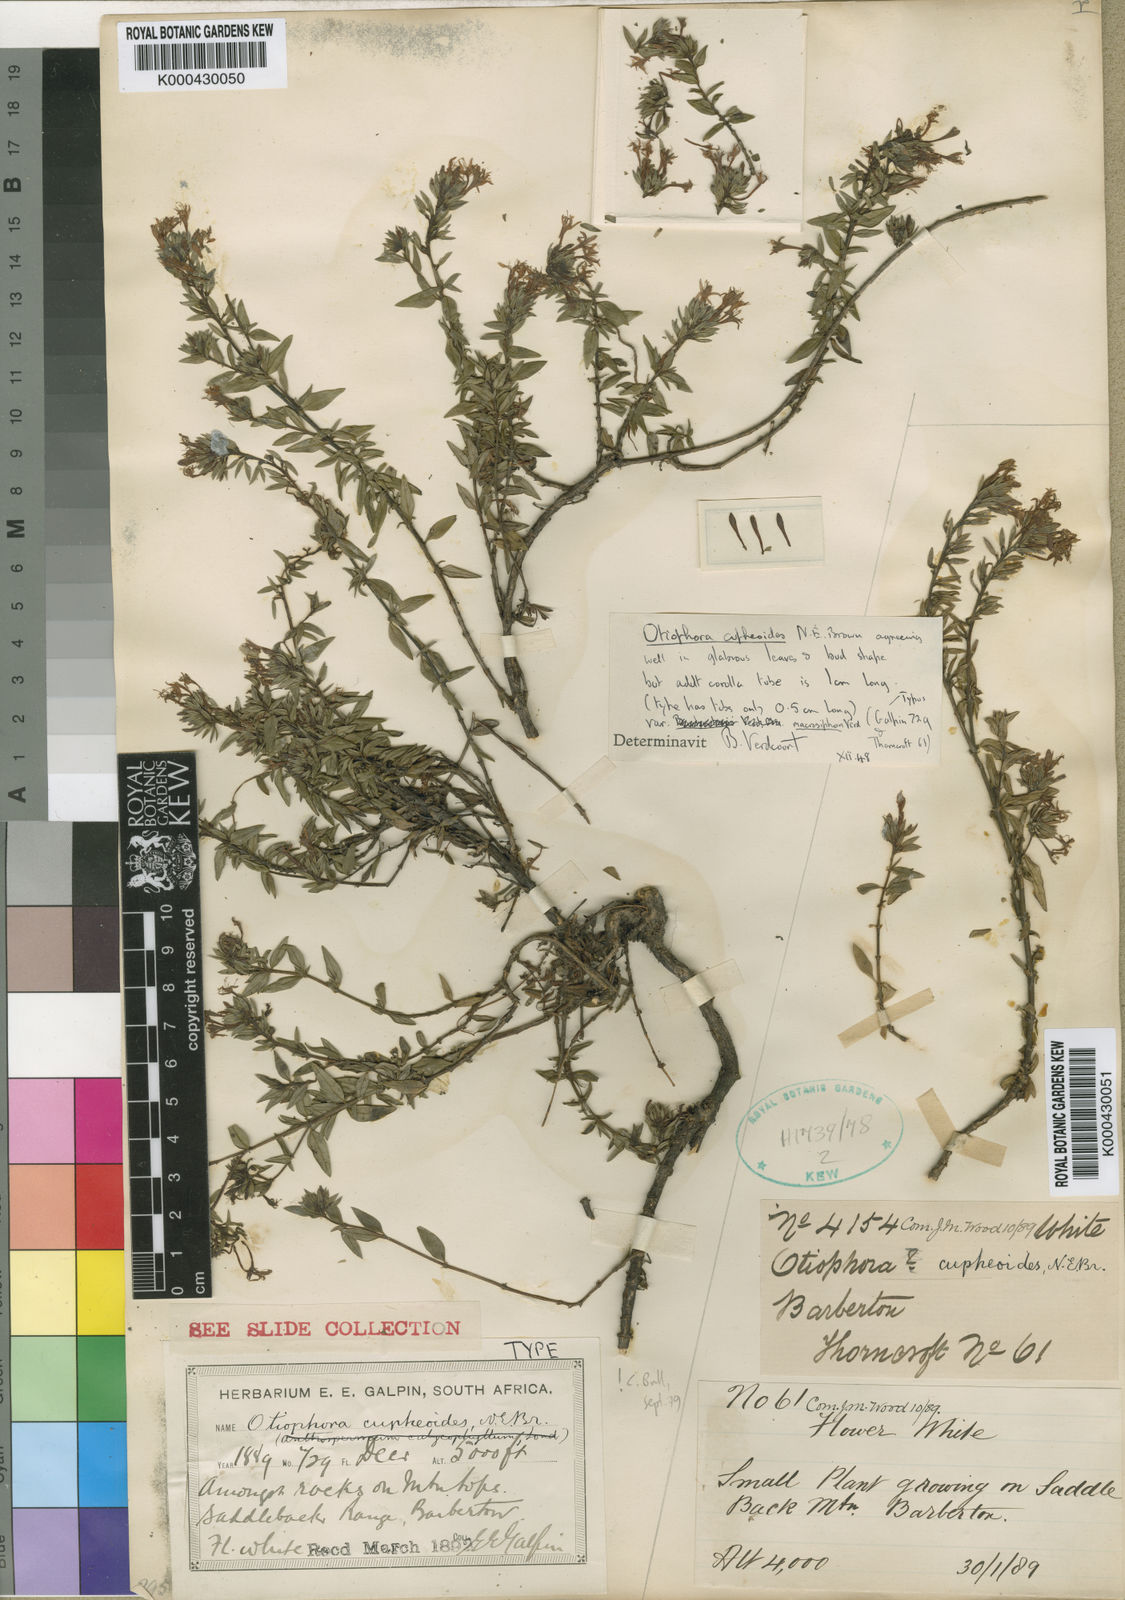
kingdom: Plantae
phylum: Tracheophyta
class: Magnoliopsida
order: Gentianales
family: Rubiaceae
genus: Otiophora
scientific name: Otiophora cupheoides
